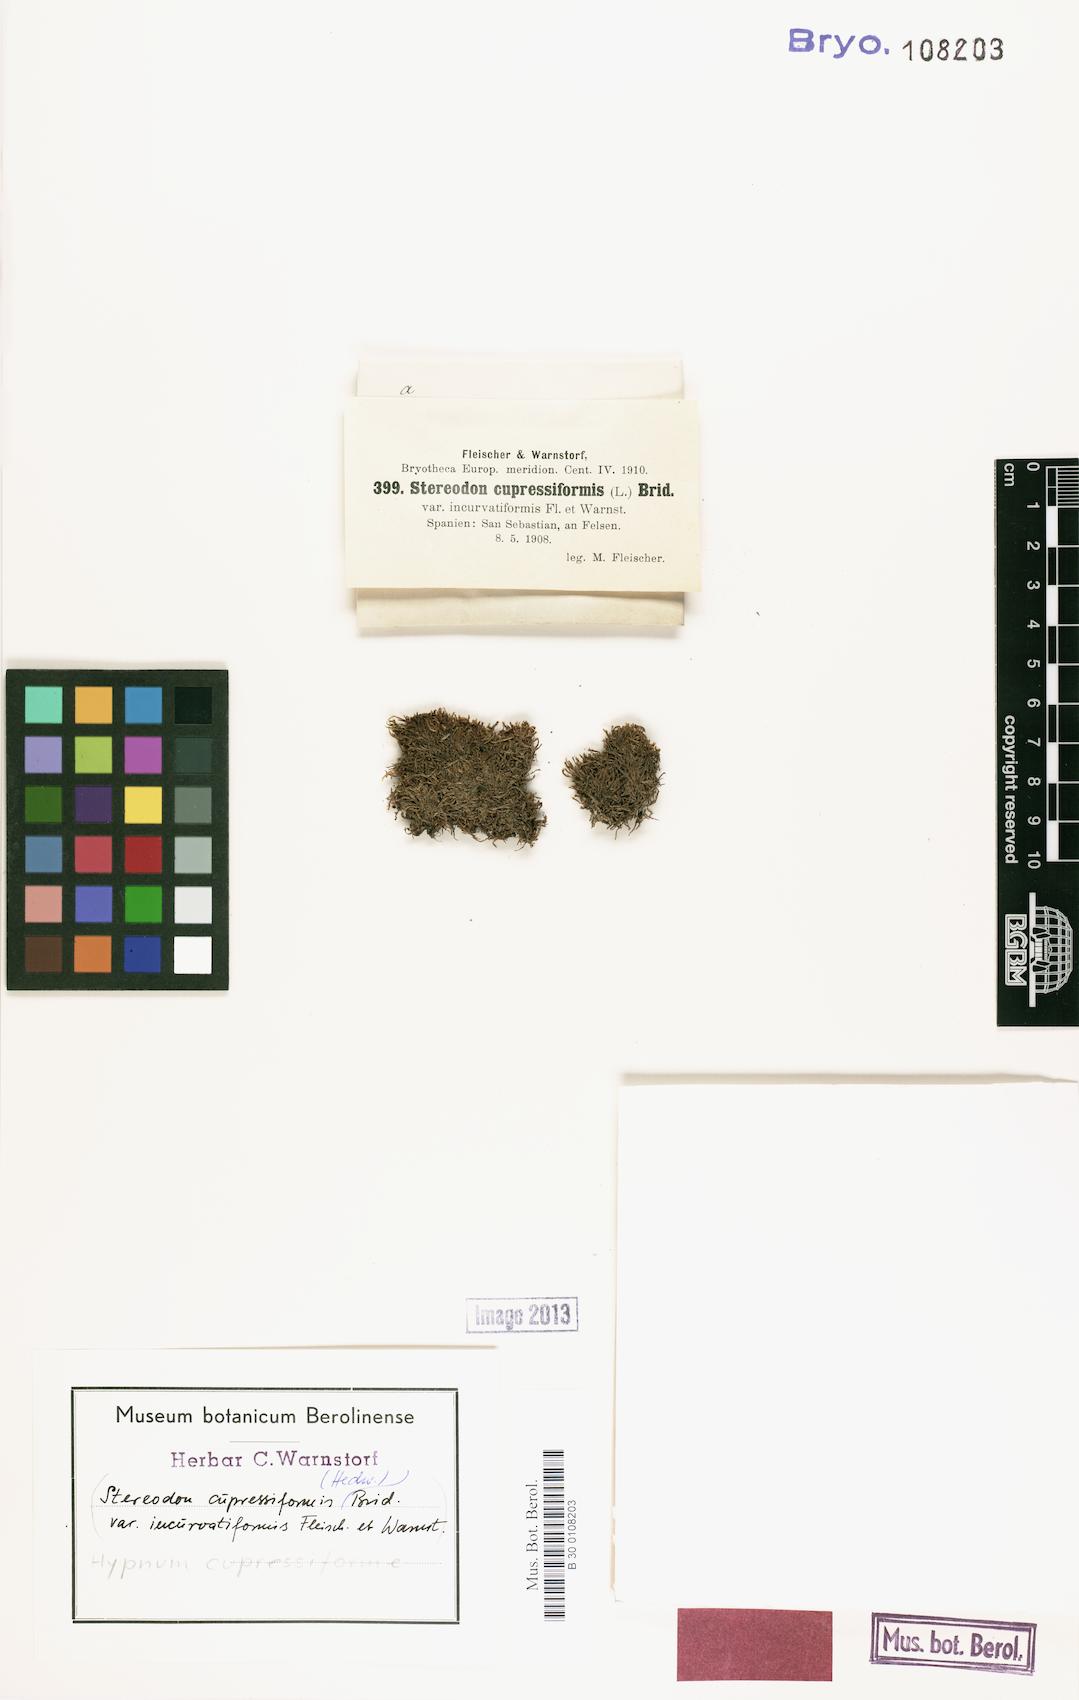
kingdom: Plantae
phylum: Bryophyta
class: Bryopsida
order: Hypnales
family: Hypnaceae
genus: Hypnum
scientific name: Hypnum cupressiforme
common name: Cypress-leaved plait-moss
